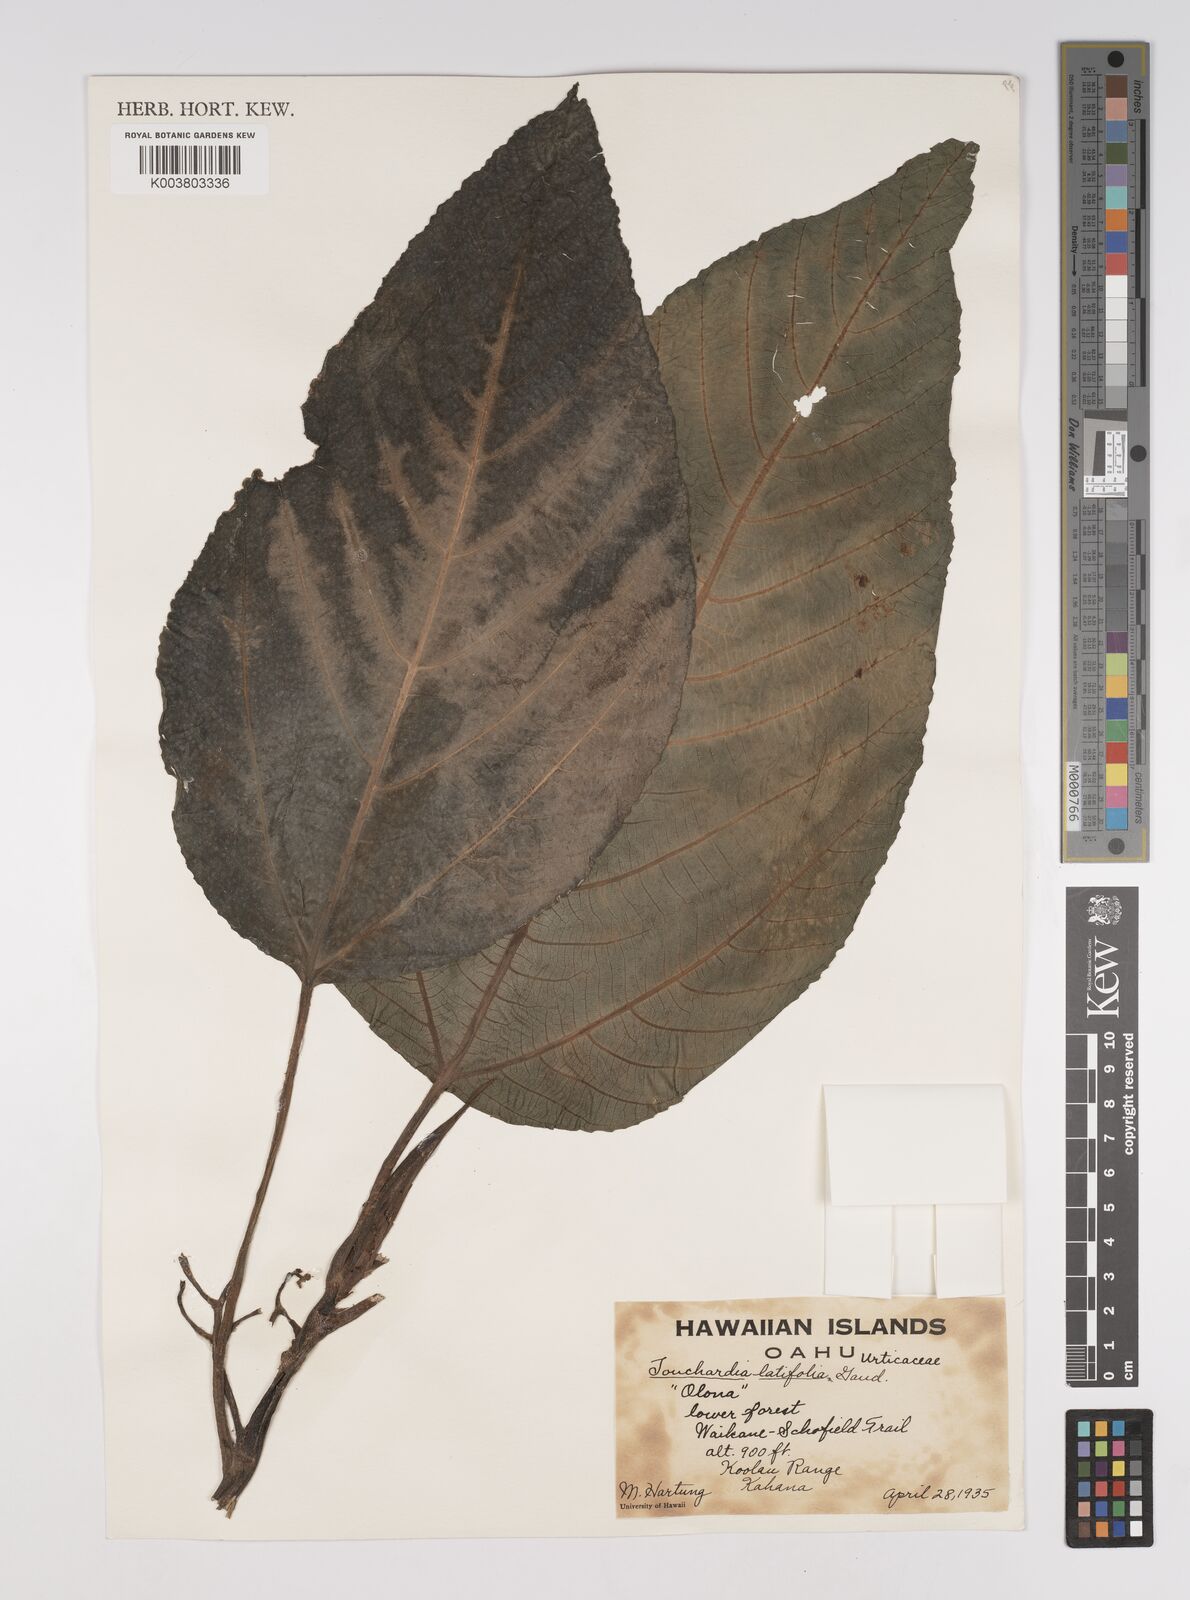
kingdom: Plantae
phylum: Tracheophyta
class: Magnoliopsida
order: Rosales
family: Urticaceae
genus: Touchardia
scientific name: Touchardia latifolia
